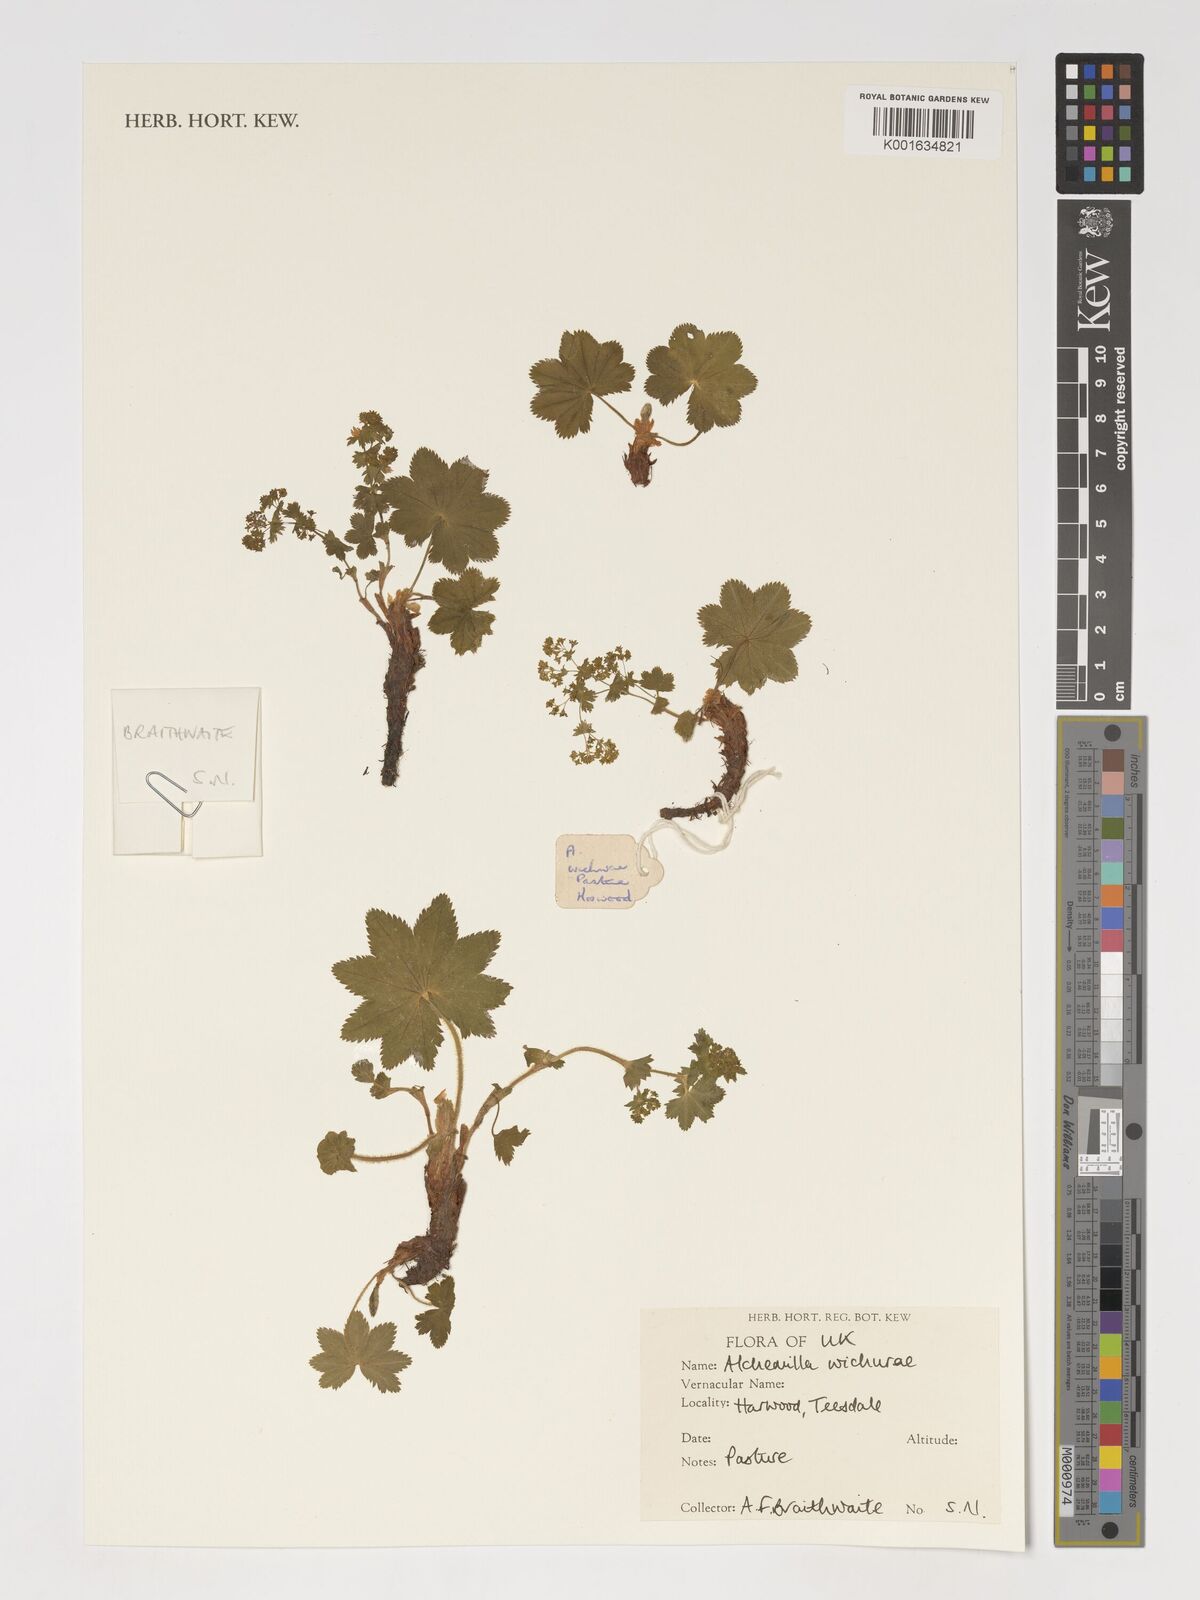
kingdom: Plantae
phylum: Tracheophyta
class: Magnoliopsida
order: Rosales
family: Rosaceae
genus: Alchemilla
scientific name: Alchemilla wichurae
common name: Rock lady's mantle
